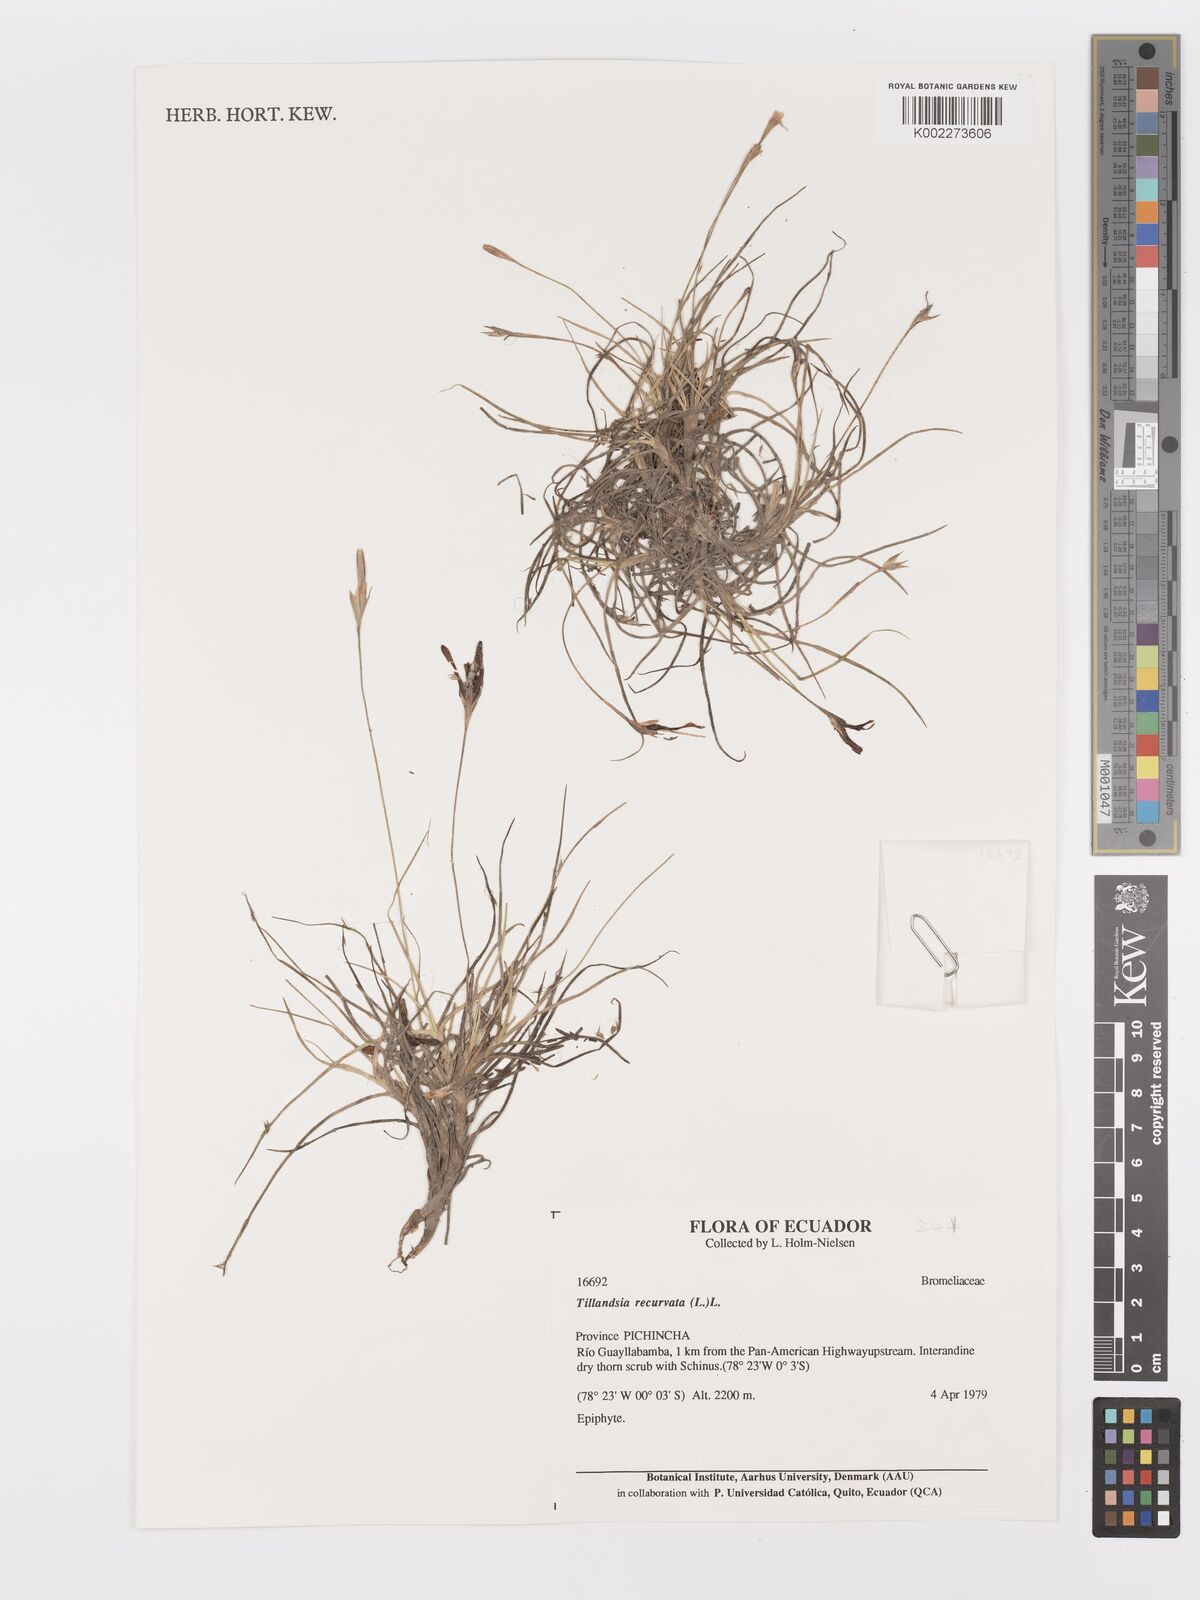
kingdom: Plantae
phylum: Tracheophyta
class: Liliopsida
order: Poales
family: Bromeliaceae
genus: Tillandsia
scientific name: Tillandsia recurvata
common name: Small ballmoss
